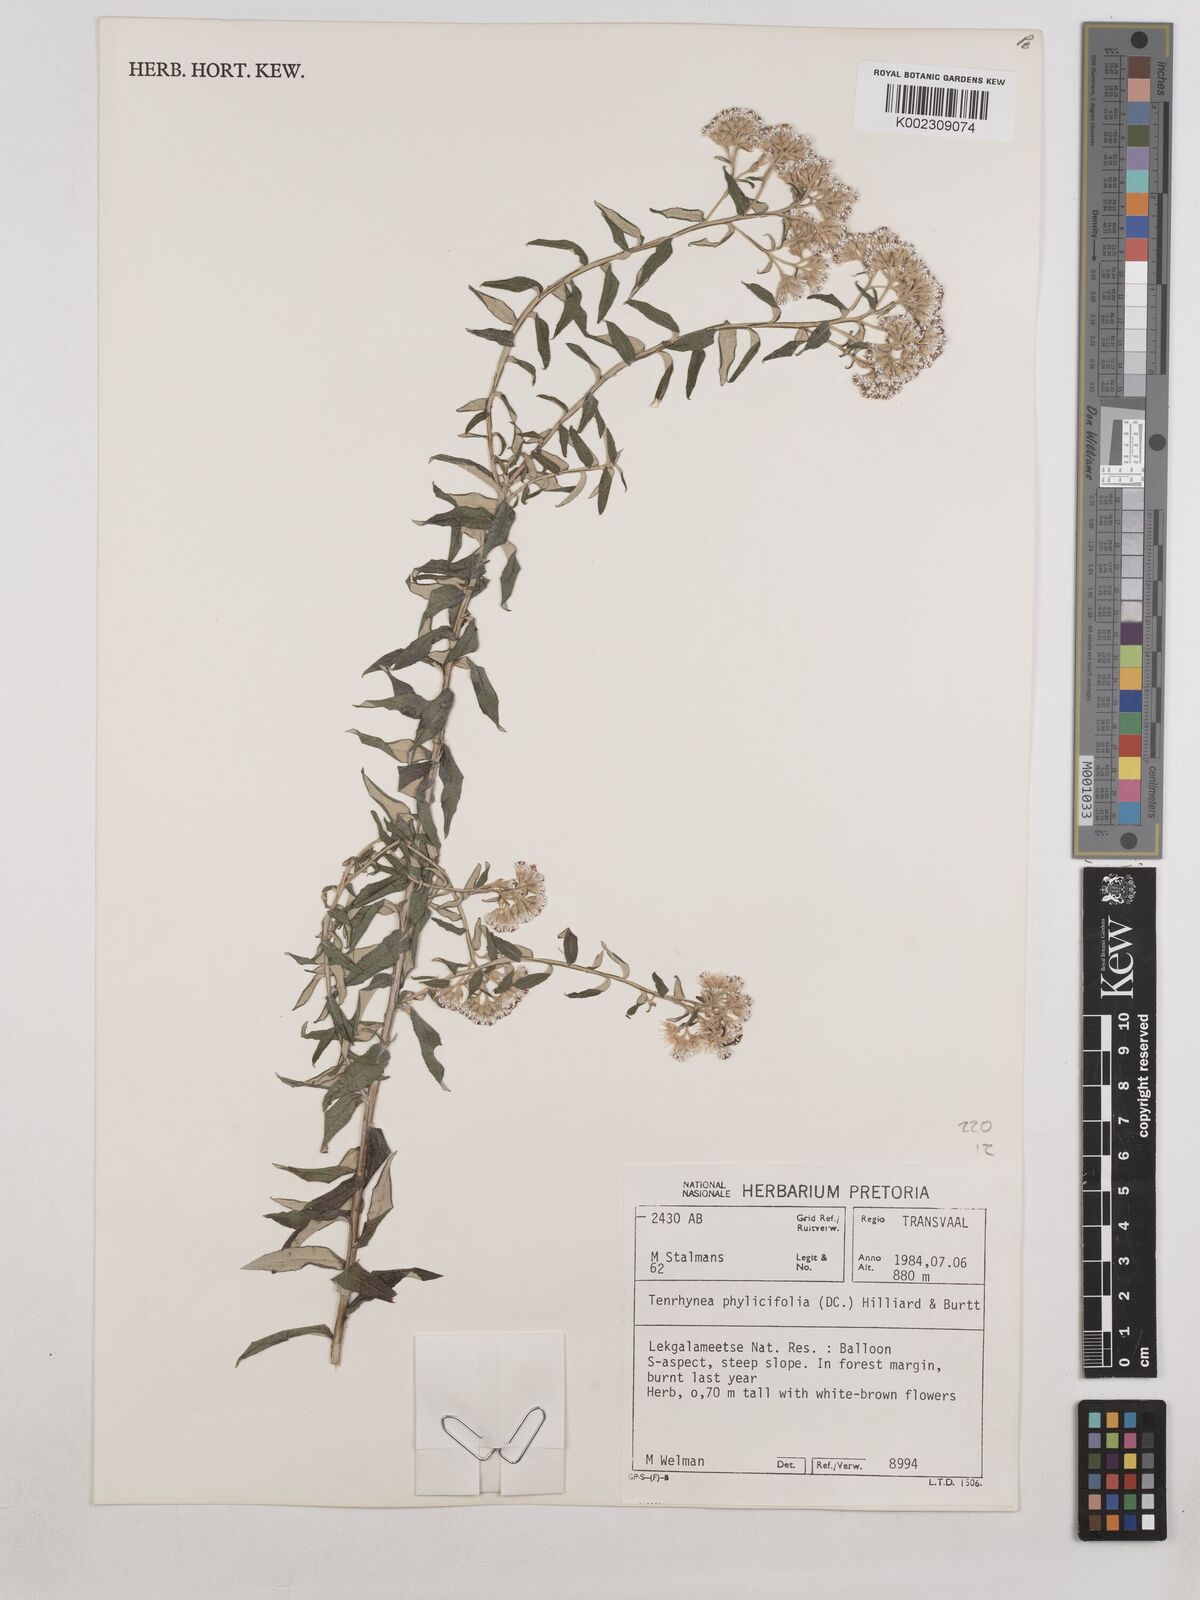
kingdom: Plantae
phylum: Tracheophyta
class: Magnoliopsida
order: Asterales
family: Asteraceae
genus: Tenrhynea
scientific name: Tenrhynea phylicifolia
